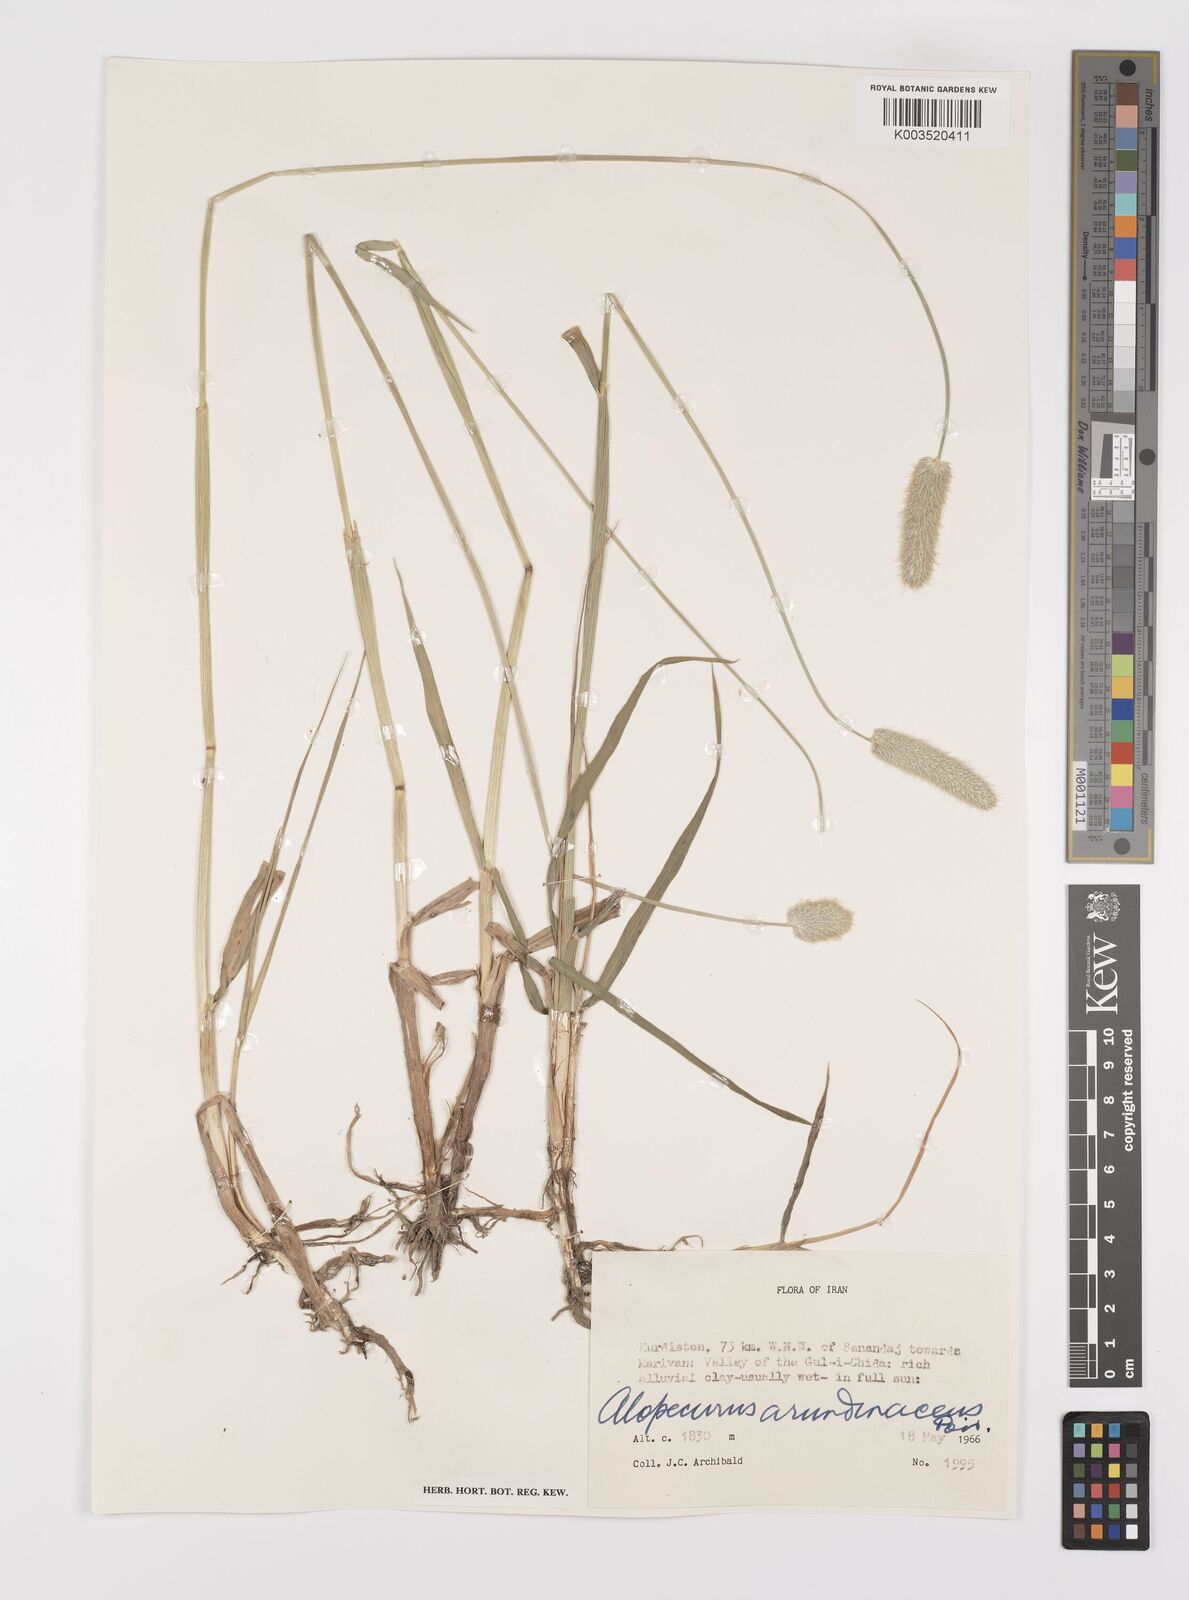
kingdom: Plantae
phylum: Tracheophyta
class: Liliopsida
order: Poales
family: Poaceae
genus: Alopecurus
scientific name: Alopecurus arundinaceus
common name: Creeping meadow foxtail
